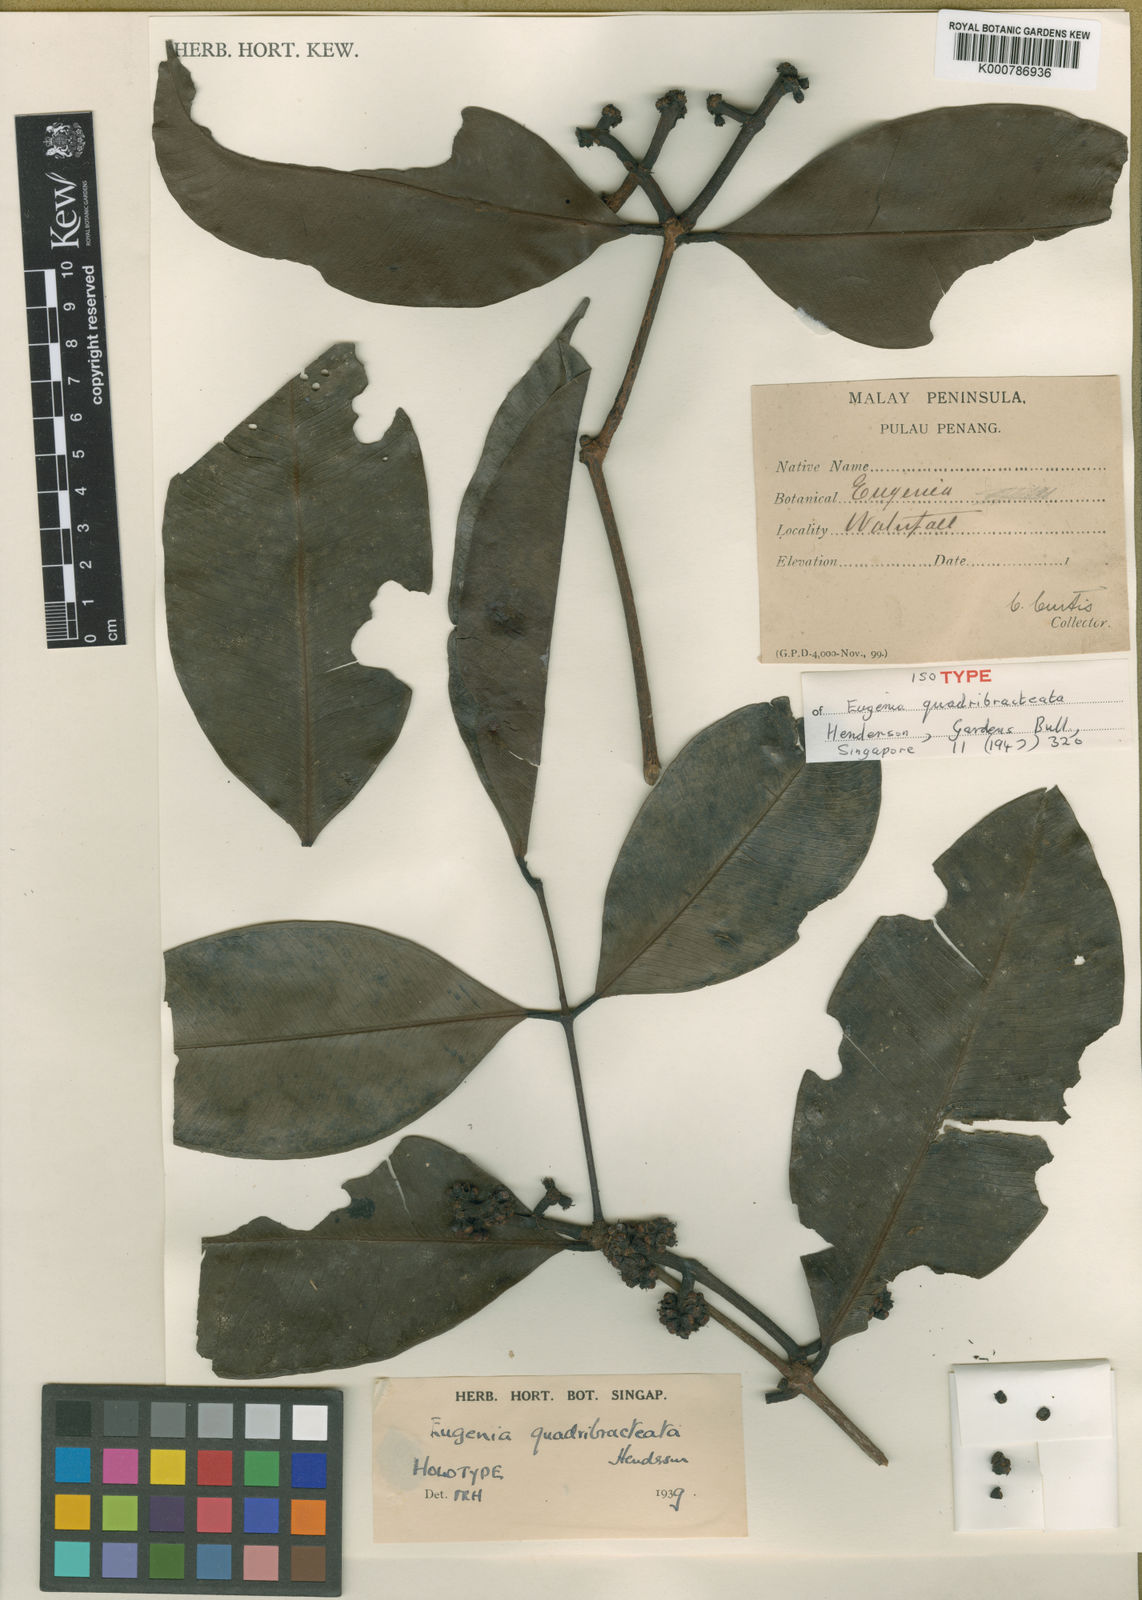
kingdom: Plantae
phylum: Tracheophyta
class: Magnoliopsida
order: Myrtales
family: Myrtaceae
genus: Syzygium
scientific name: Syzygium quadribracteatum
